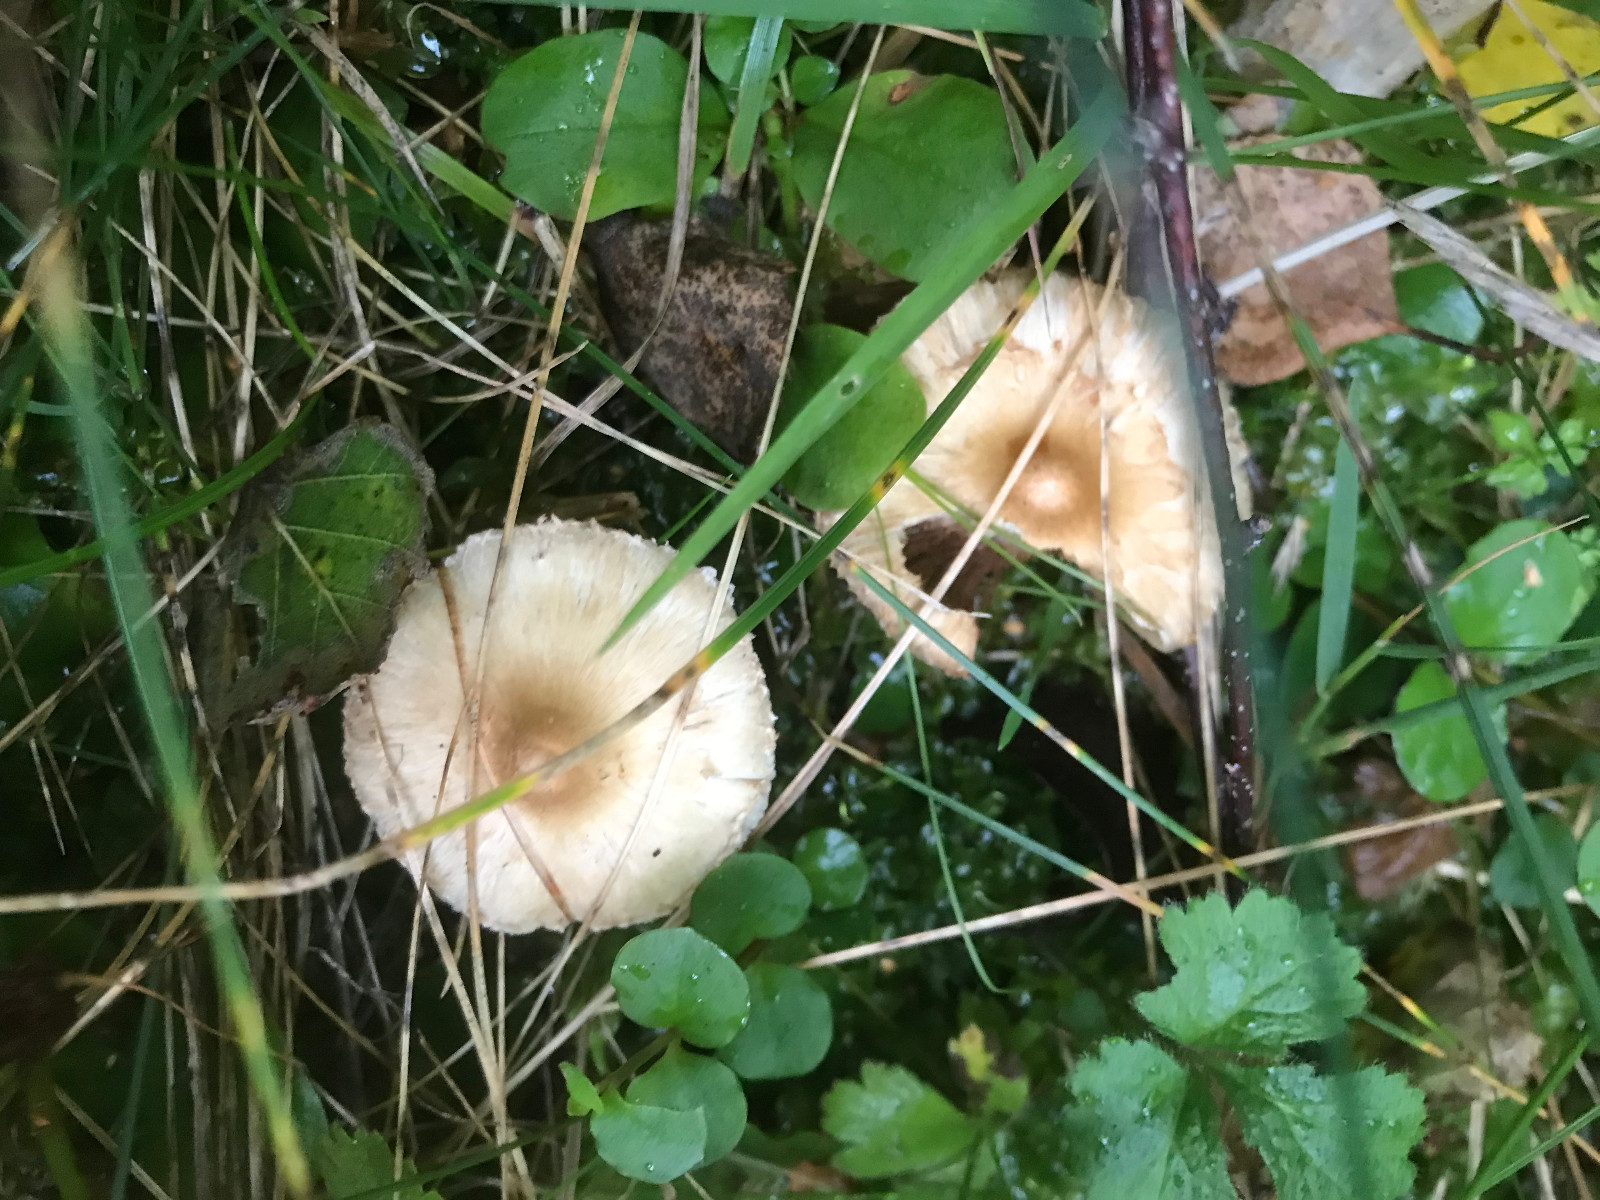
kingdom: Fungi
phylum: Basidiomycota
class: Agaricomycetes
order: Agaricales
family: Inocybaceae
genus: Inocybe
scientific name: Inocybe
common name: trævlhat
